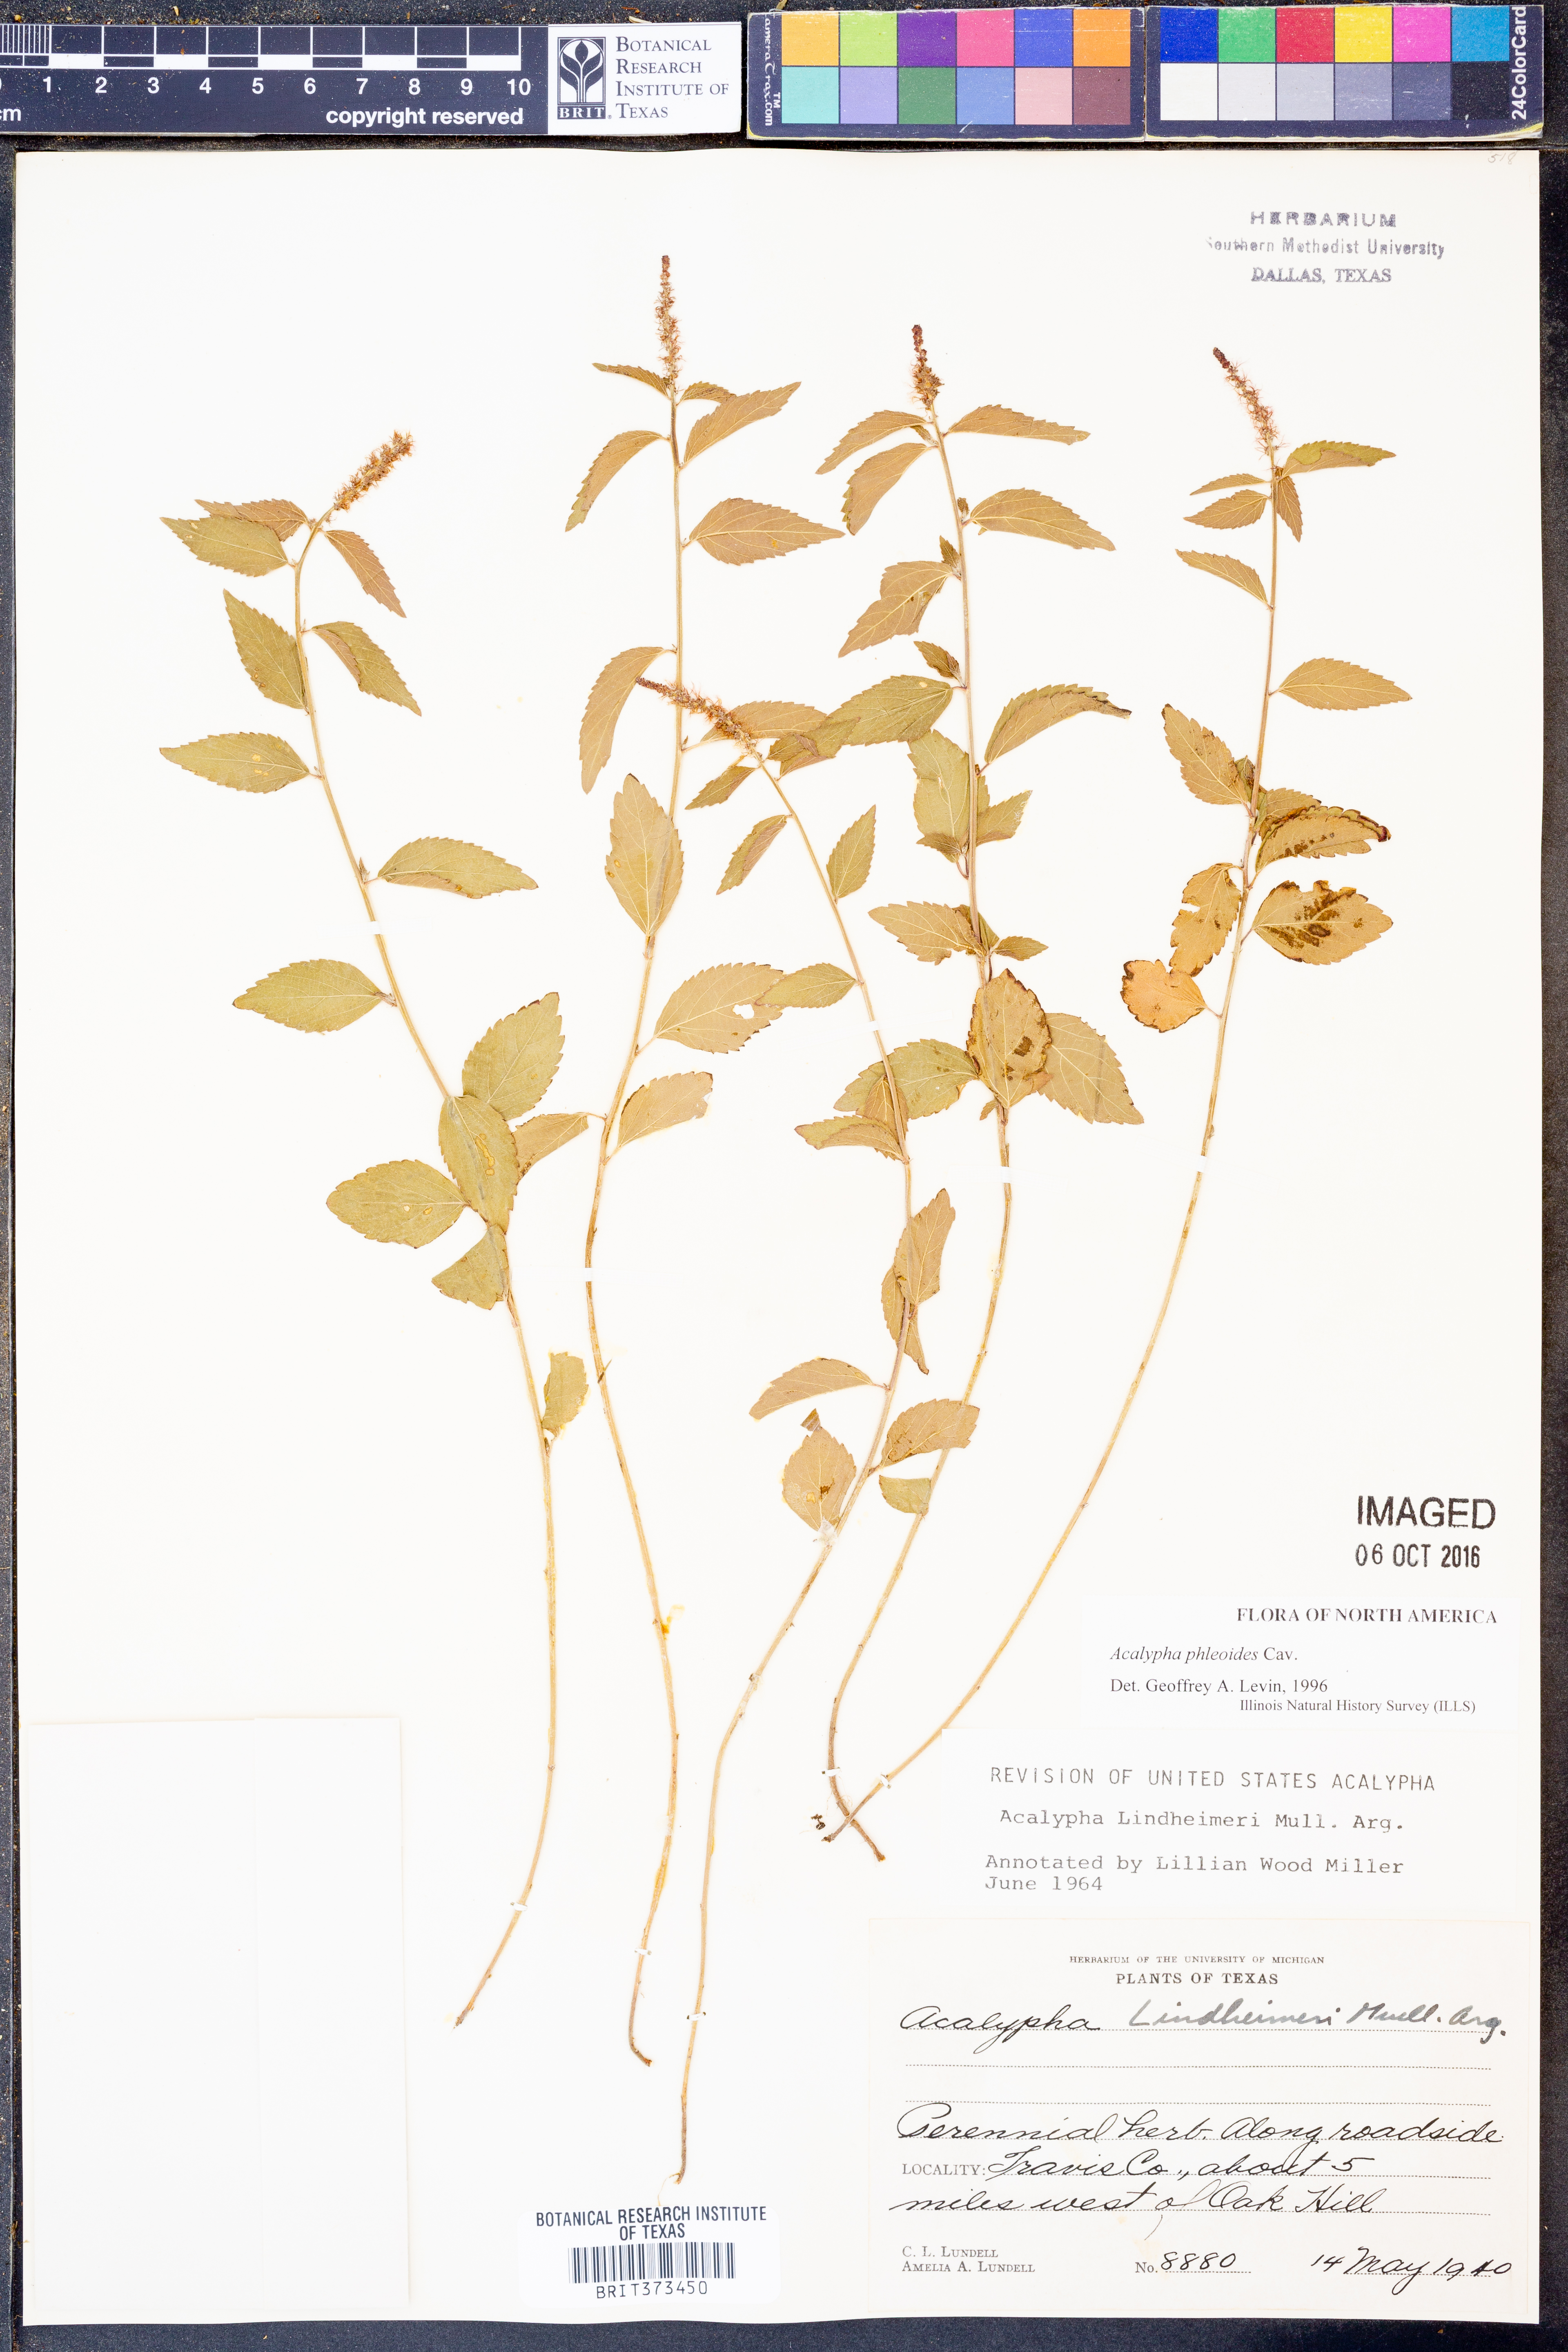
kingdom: Plantae
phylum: Tracheophyta
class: Magnoliopsida
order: Malpighiales
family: Euphorbiaceae
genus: Acalypha
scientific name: Acalypha phleoides
